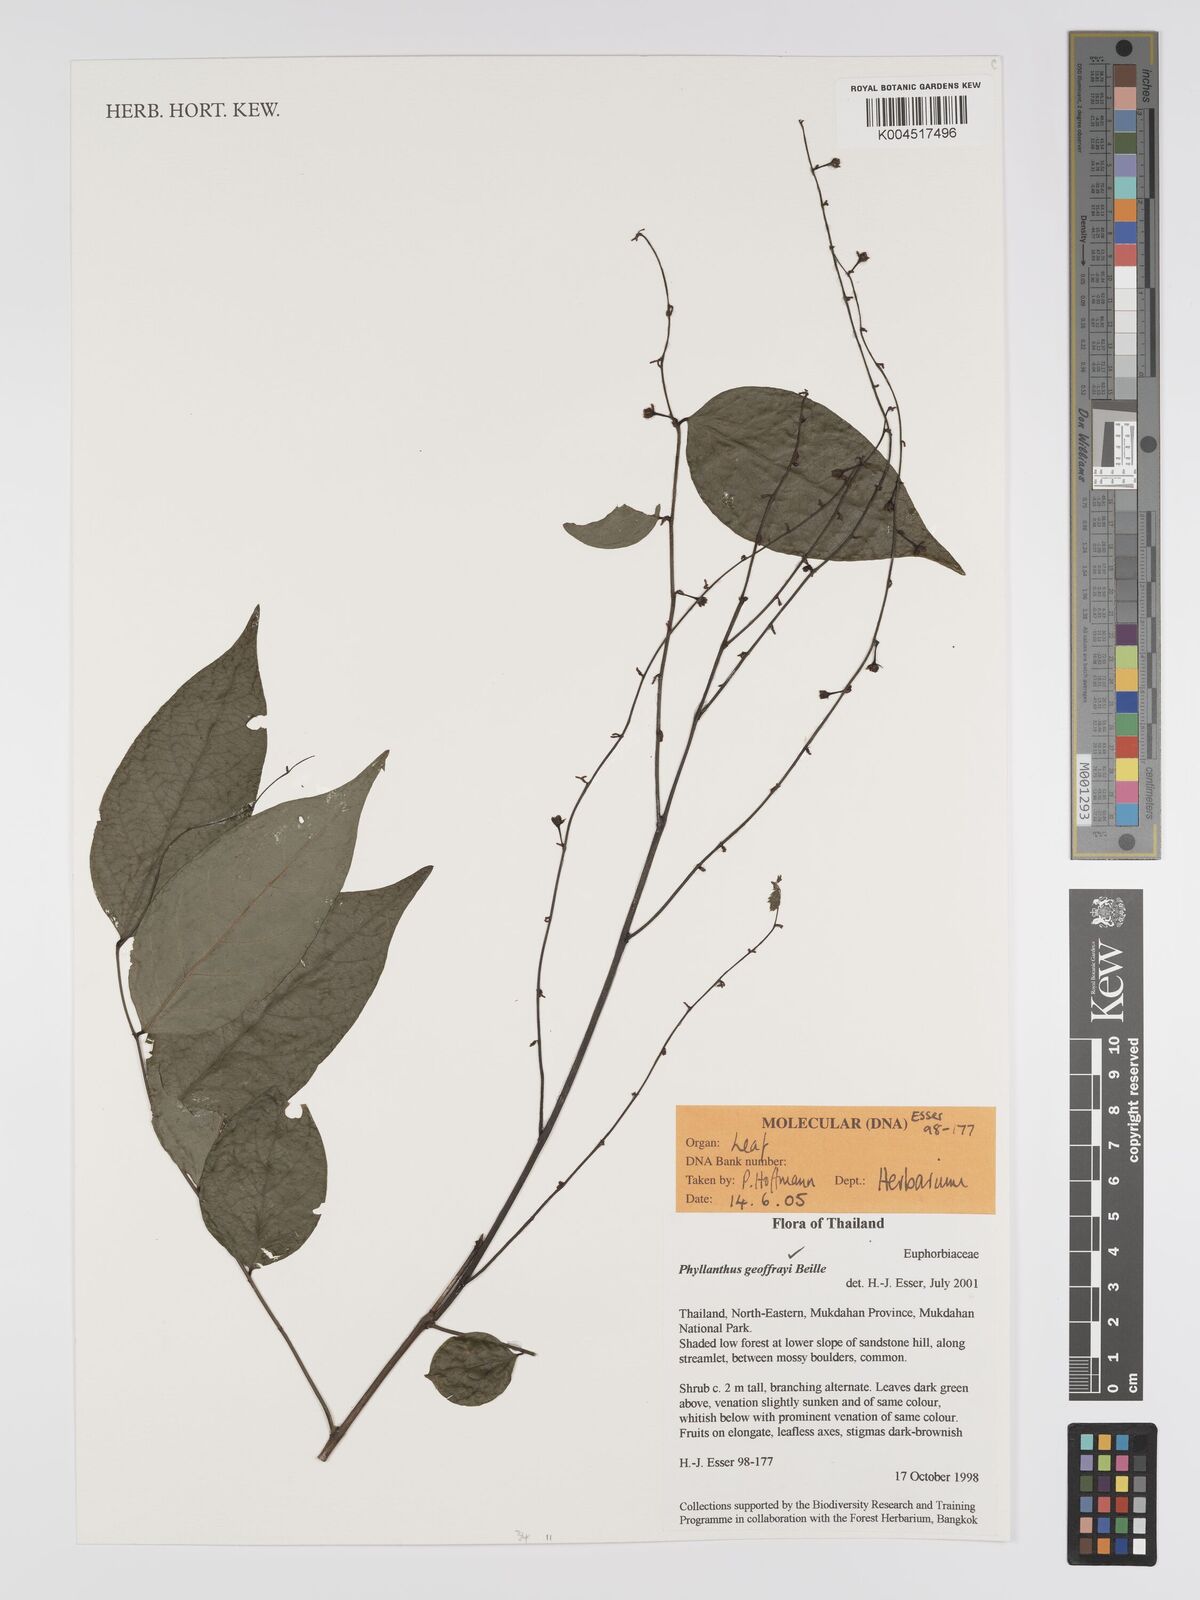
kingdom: Plantae
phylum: Tracheophyta
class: Magnoliopsida
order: Malpighiales
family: Phyllanthaceae
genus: Phyllanthus
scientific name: Phyllanthus geoffrayi
